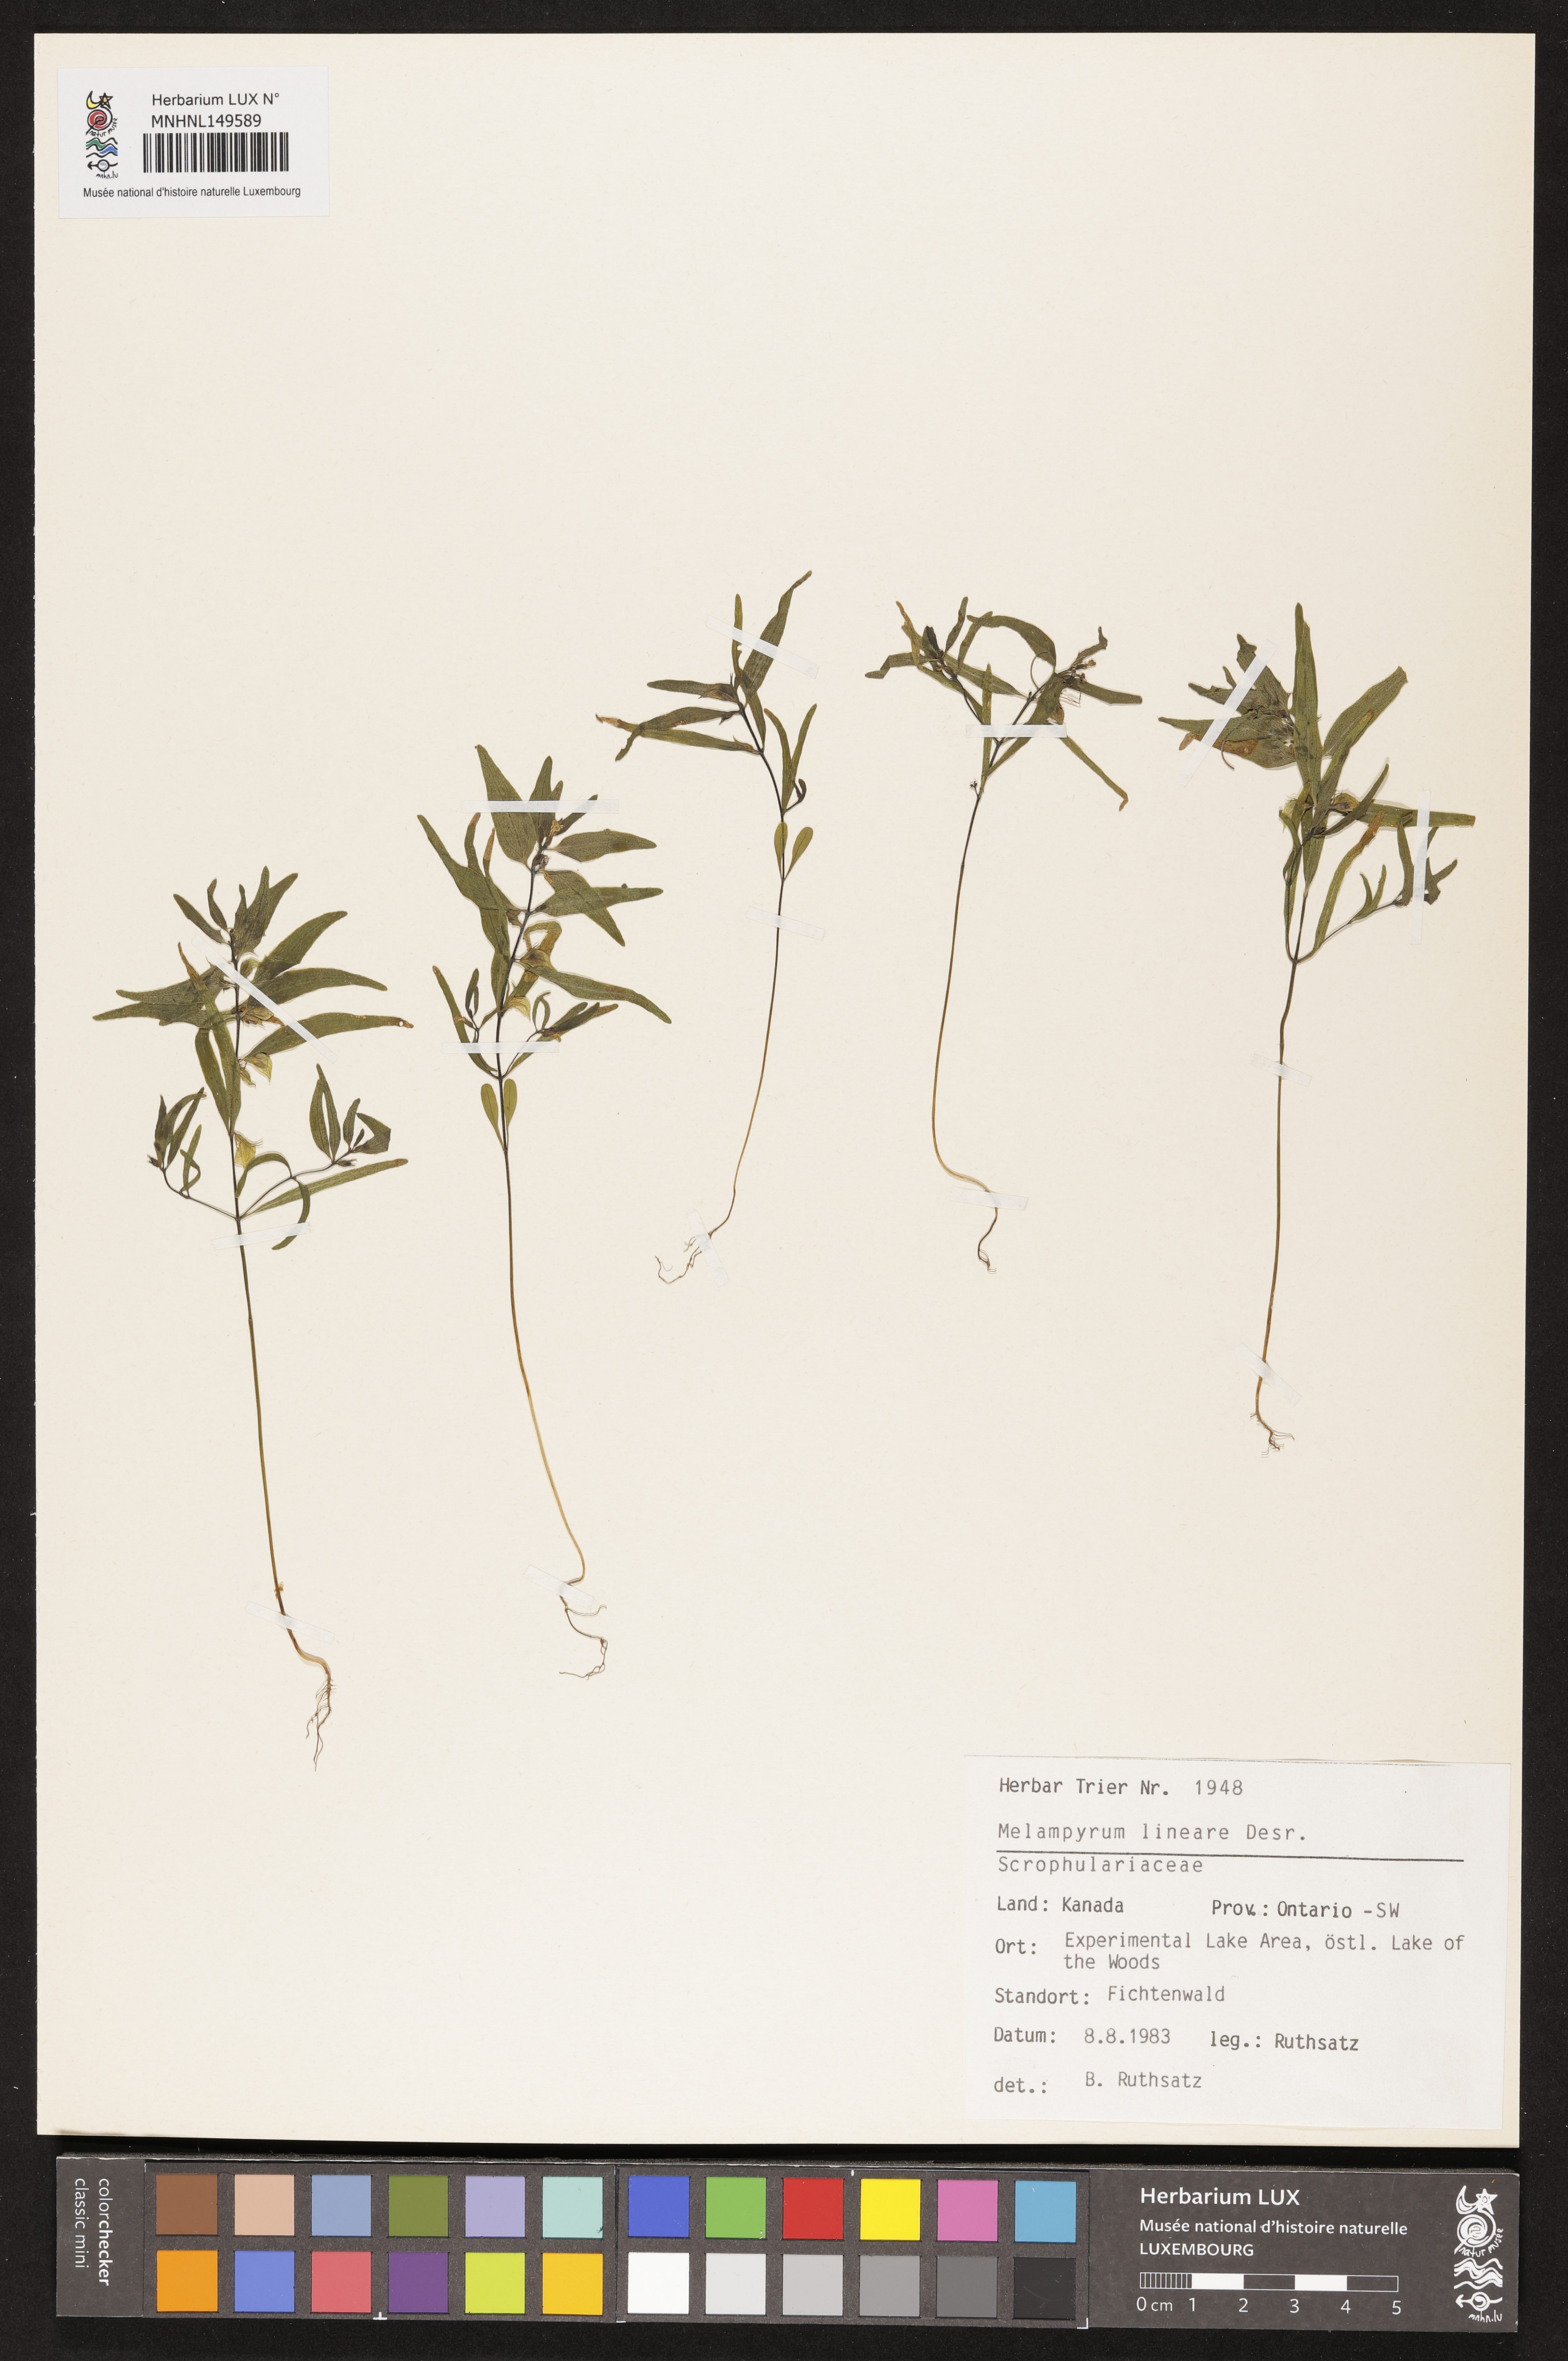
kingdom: Plantae
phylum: Tracheophyta
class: Magnoliopsida
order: Lamiales
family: Orobanchaceae
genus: Melampyrum
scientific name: Melampyrum lineare
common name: American cow-wheat
